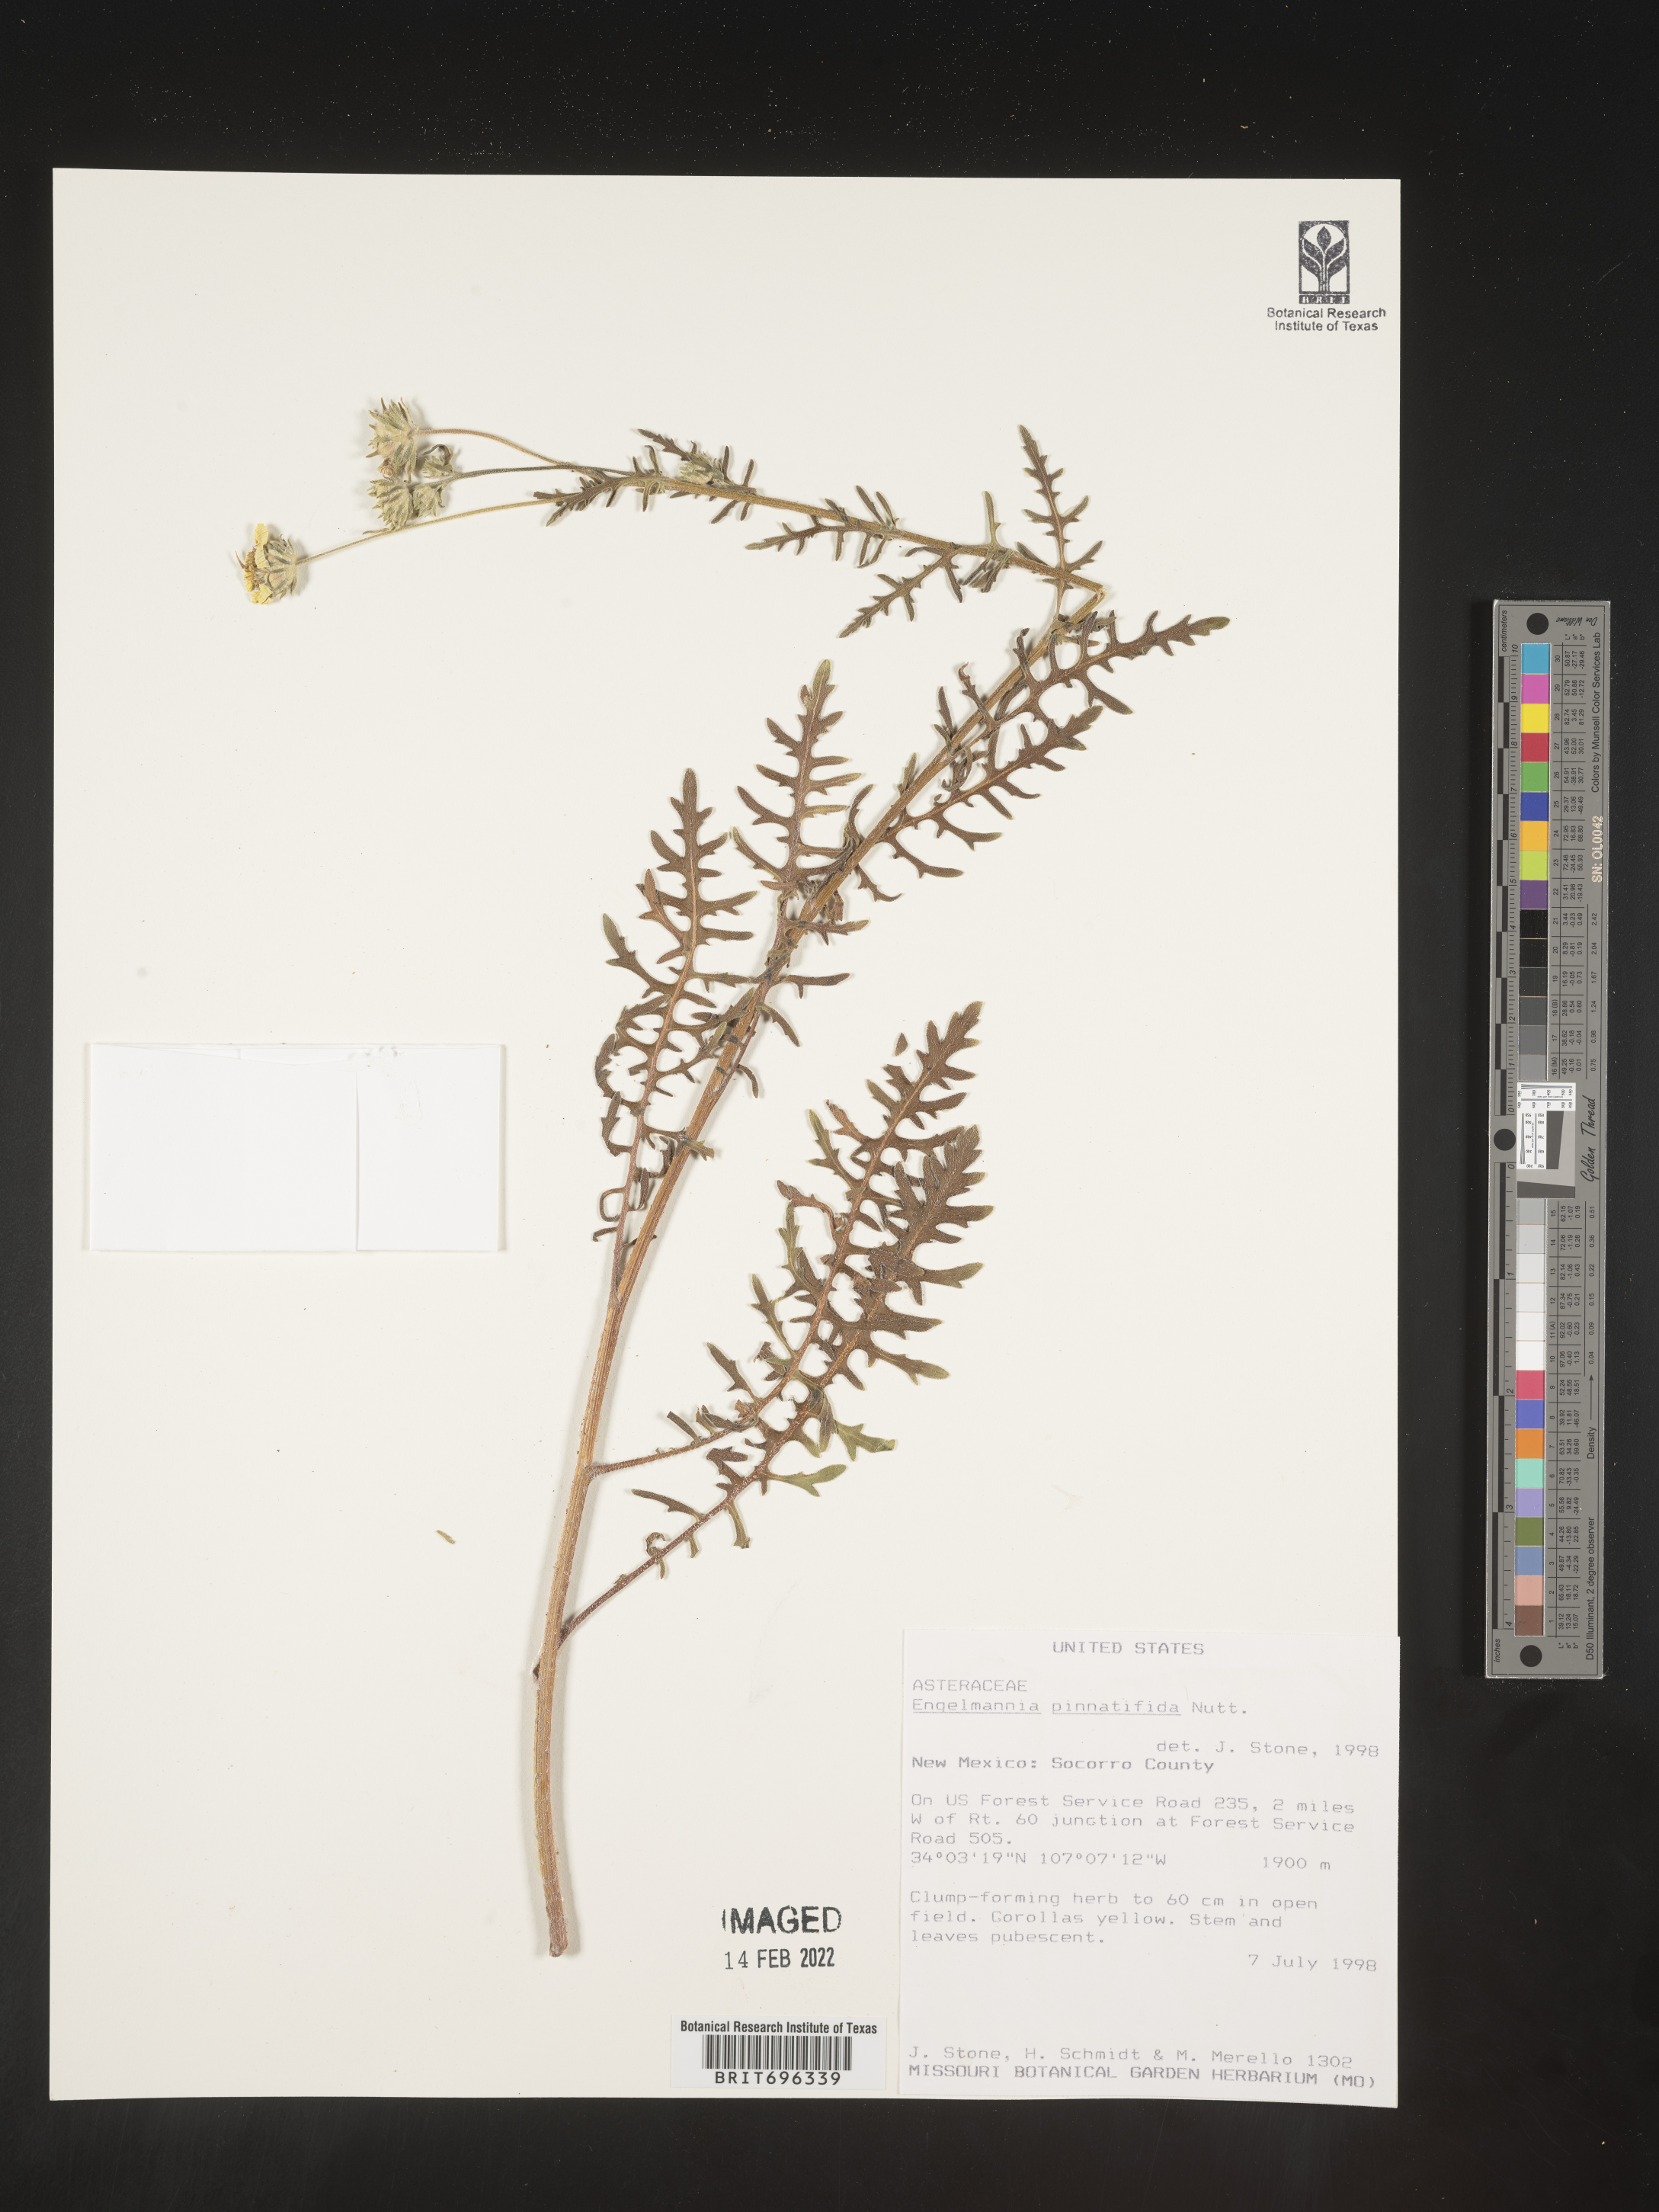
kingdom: Plantae
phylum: Tracheophyta
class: Magnoliopsida
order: Asterales
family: Asteraceae
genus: Engelmannia
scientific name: Engelmannia peristenia
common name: Engelmann's daisy
